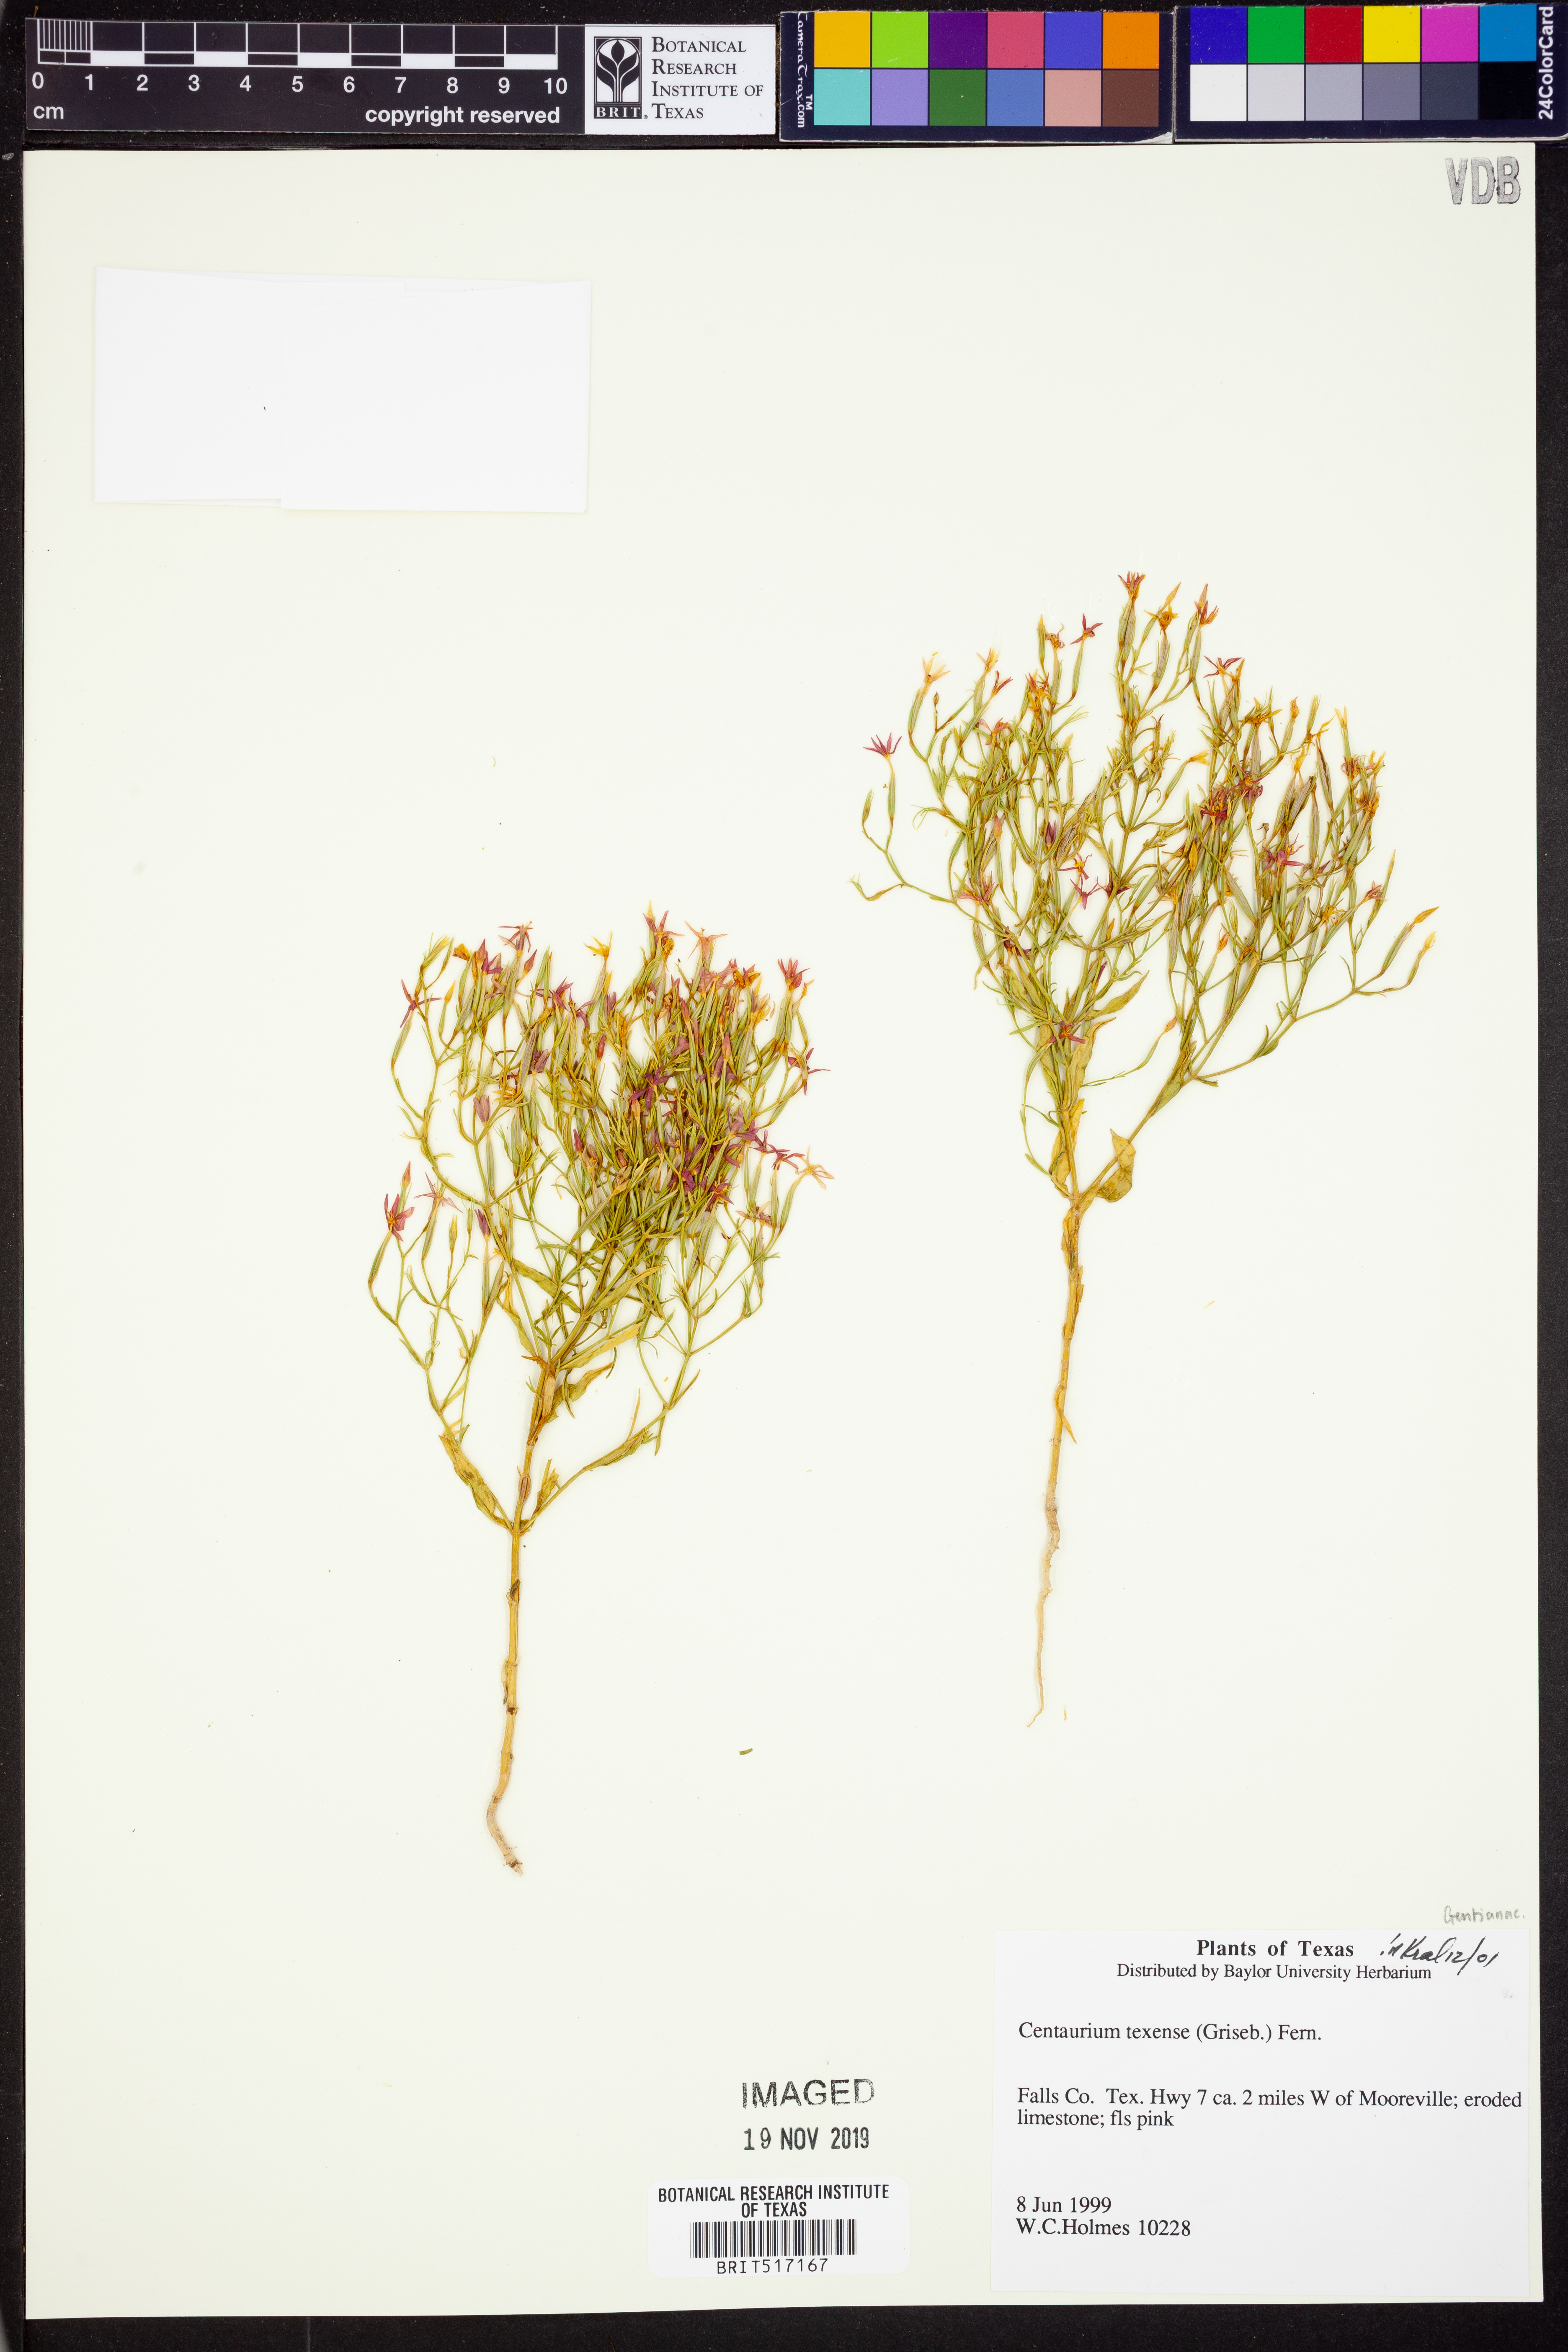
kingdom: Plantae
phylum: Tracheophyta
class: Magnoliopsida
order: Gentianales
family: Gentianaceae
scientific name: Gentianaceae
